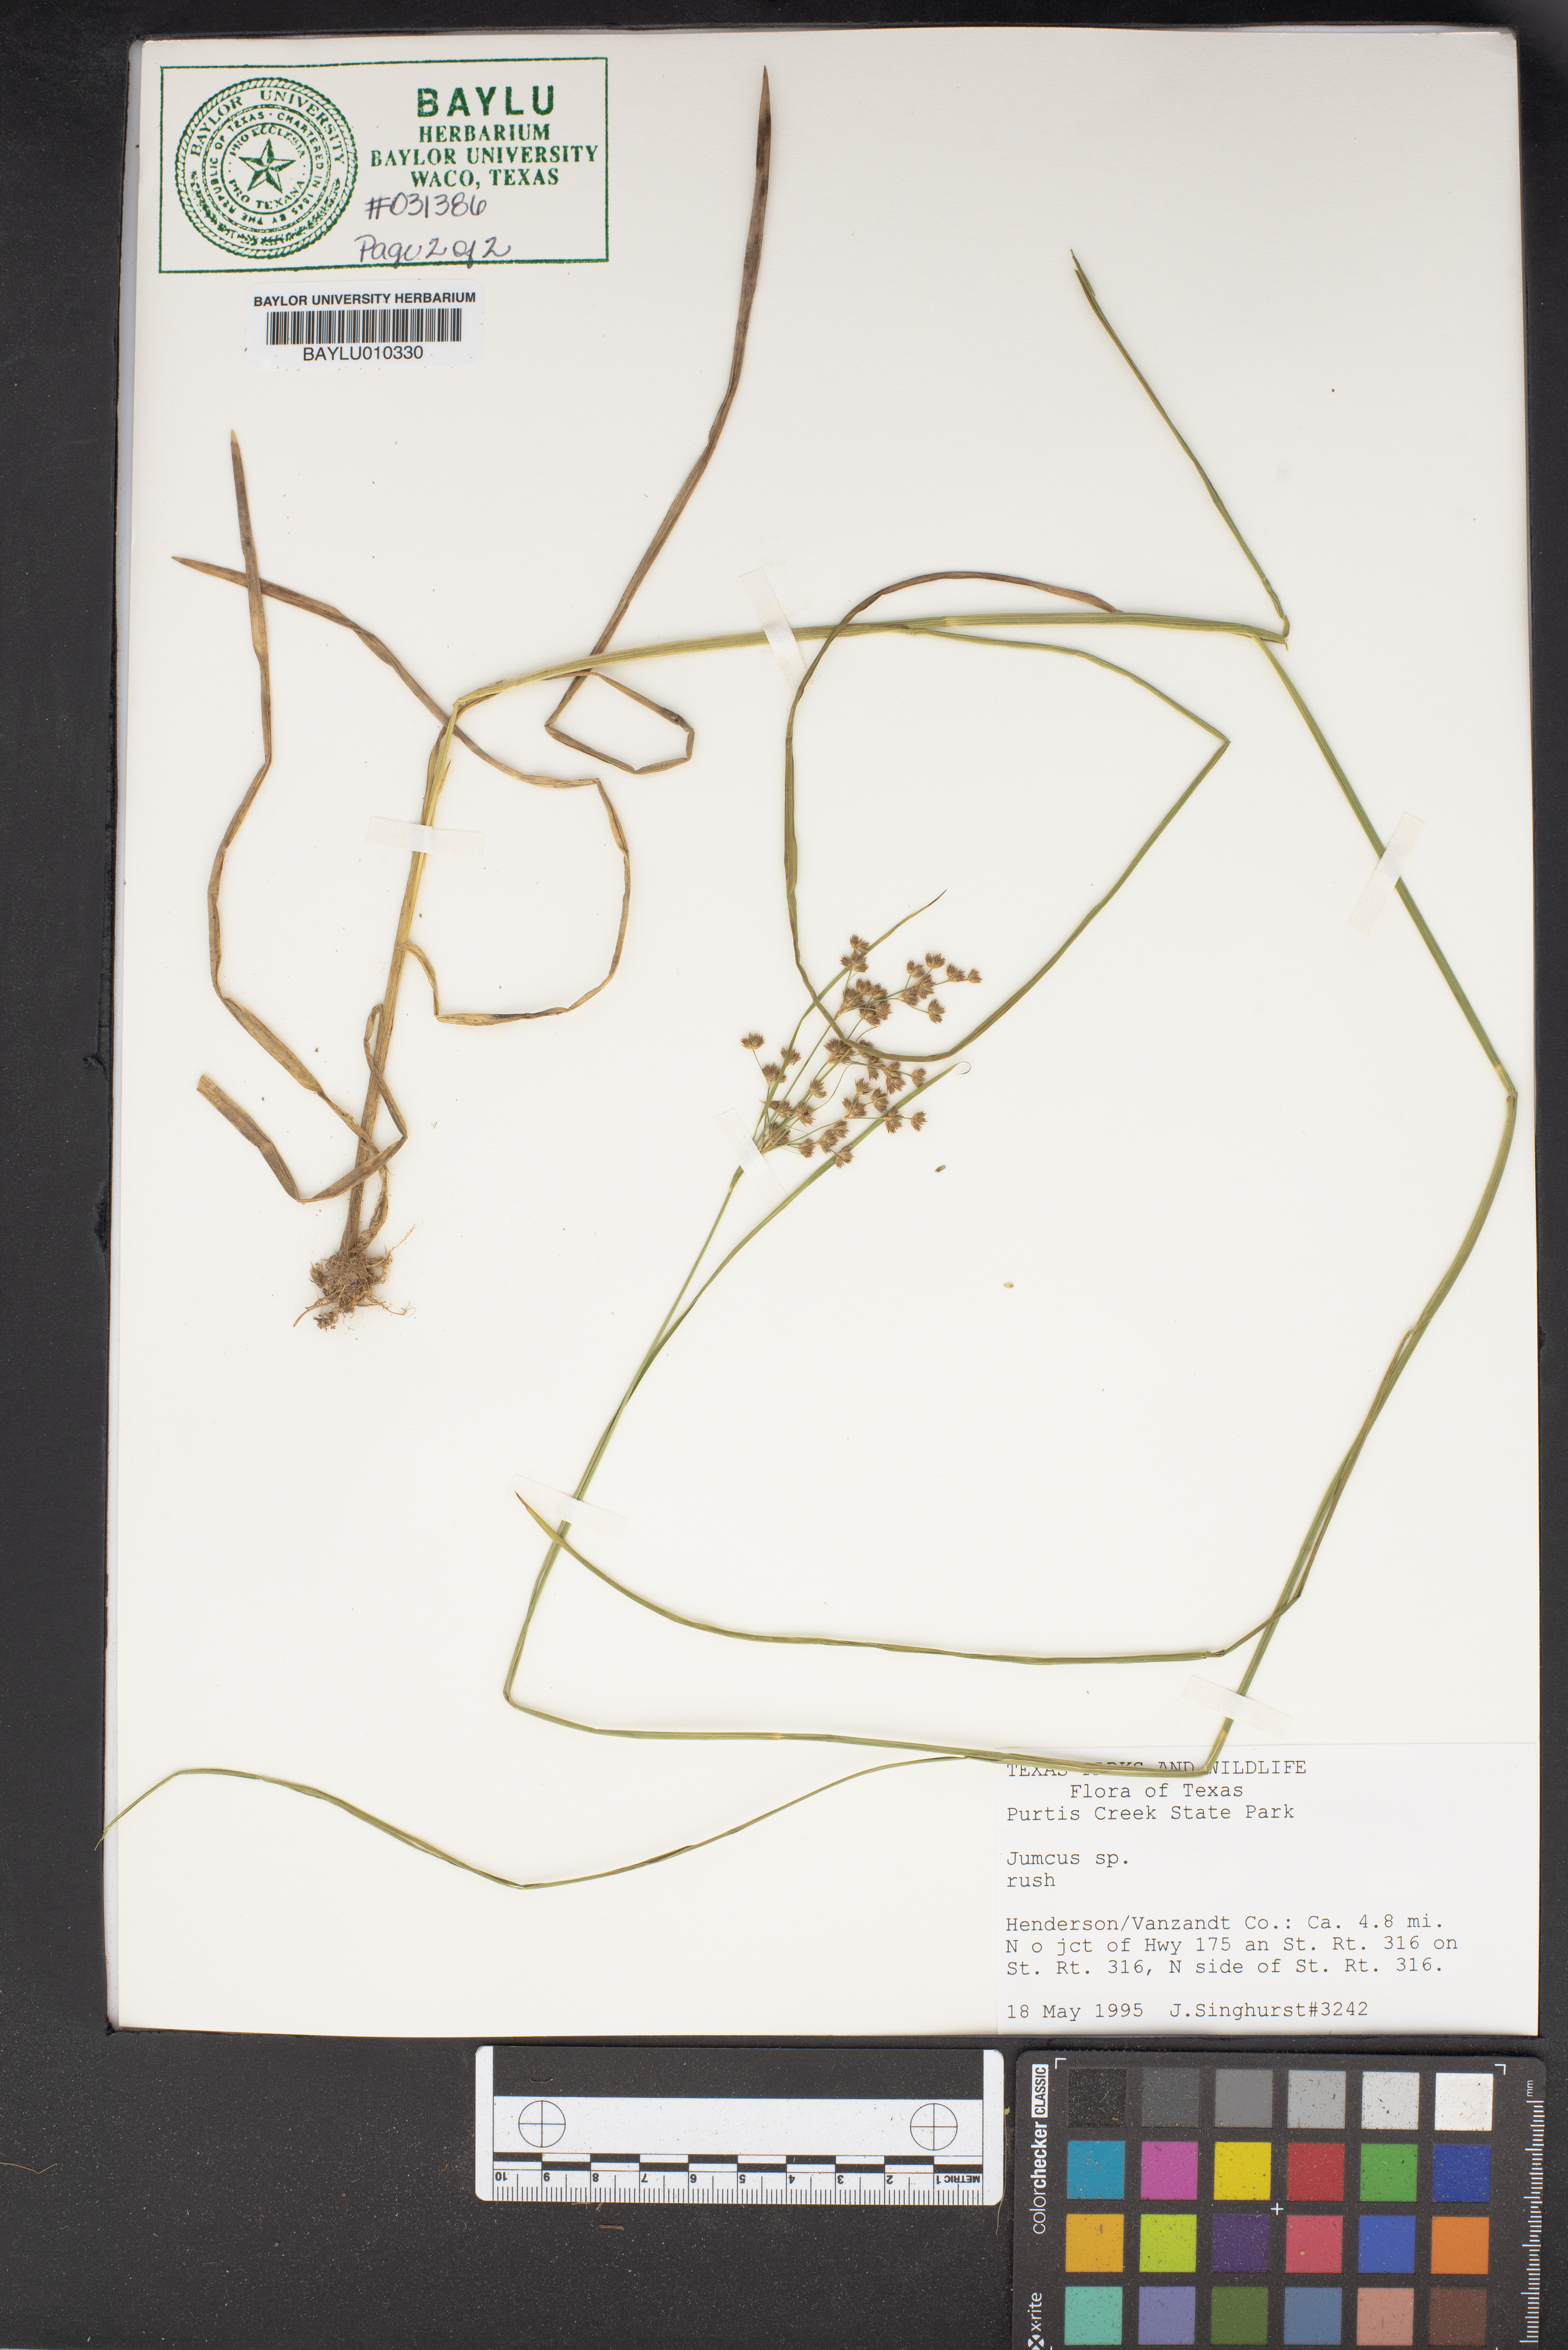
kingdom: Plantae
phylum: Tracheophyta
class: Liliopsida
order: Poales
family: Juncaceae
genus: Juncus
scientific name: Juncus
